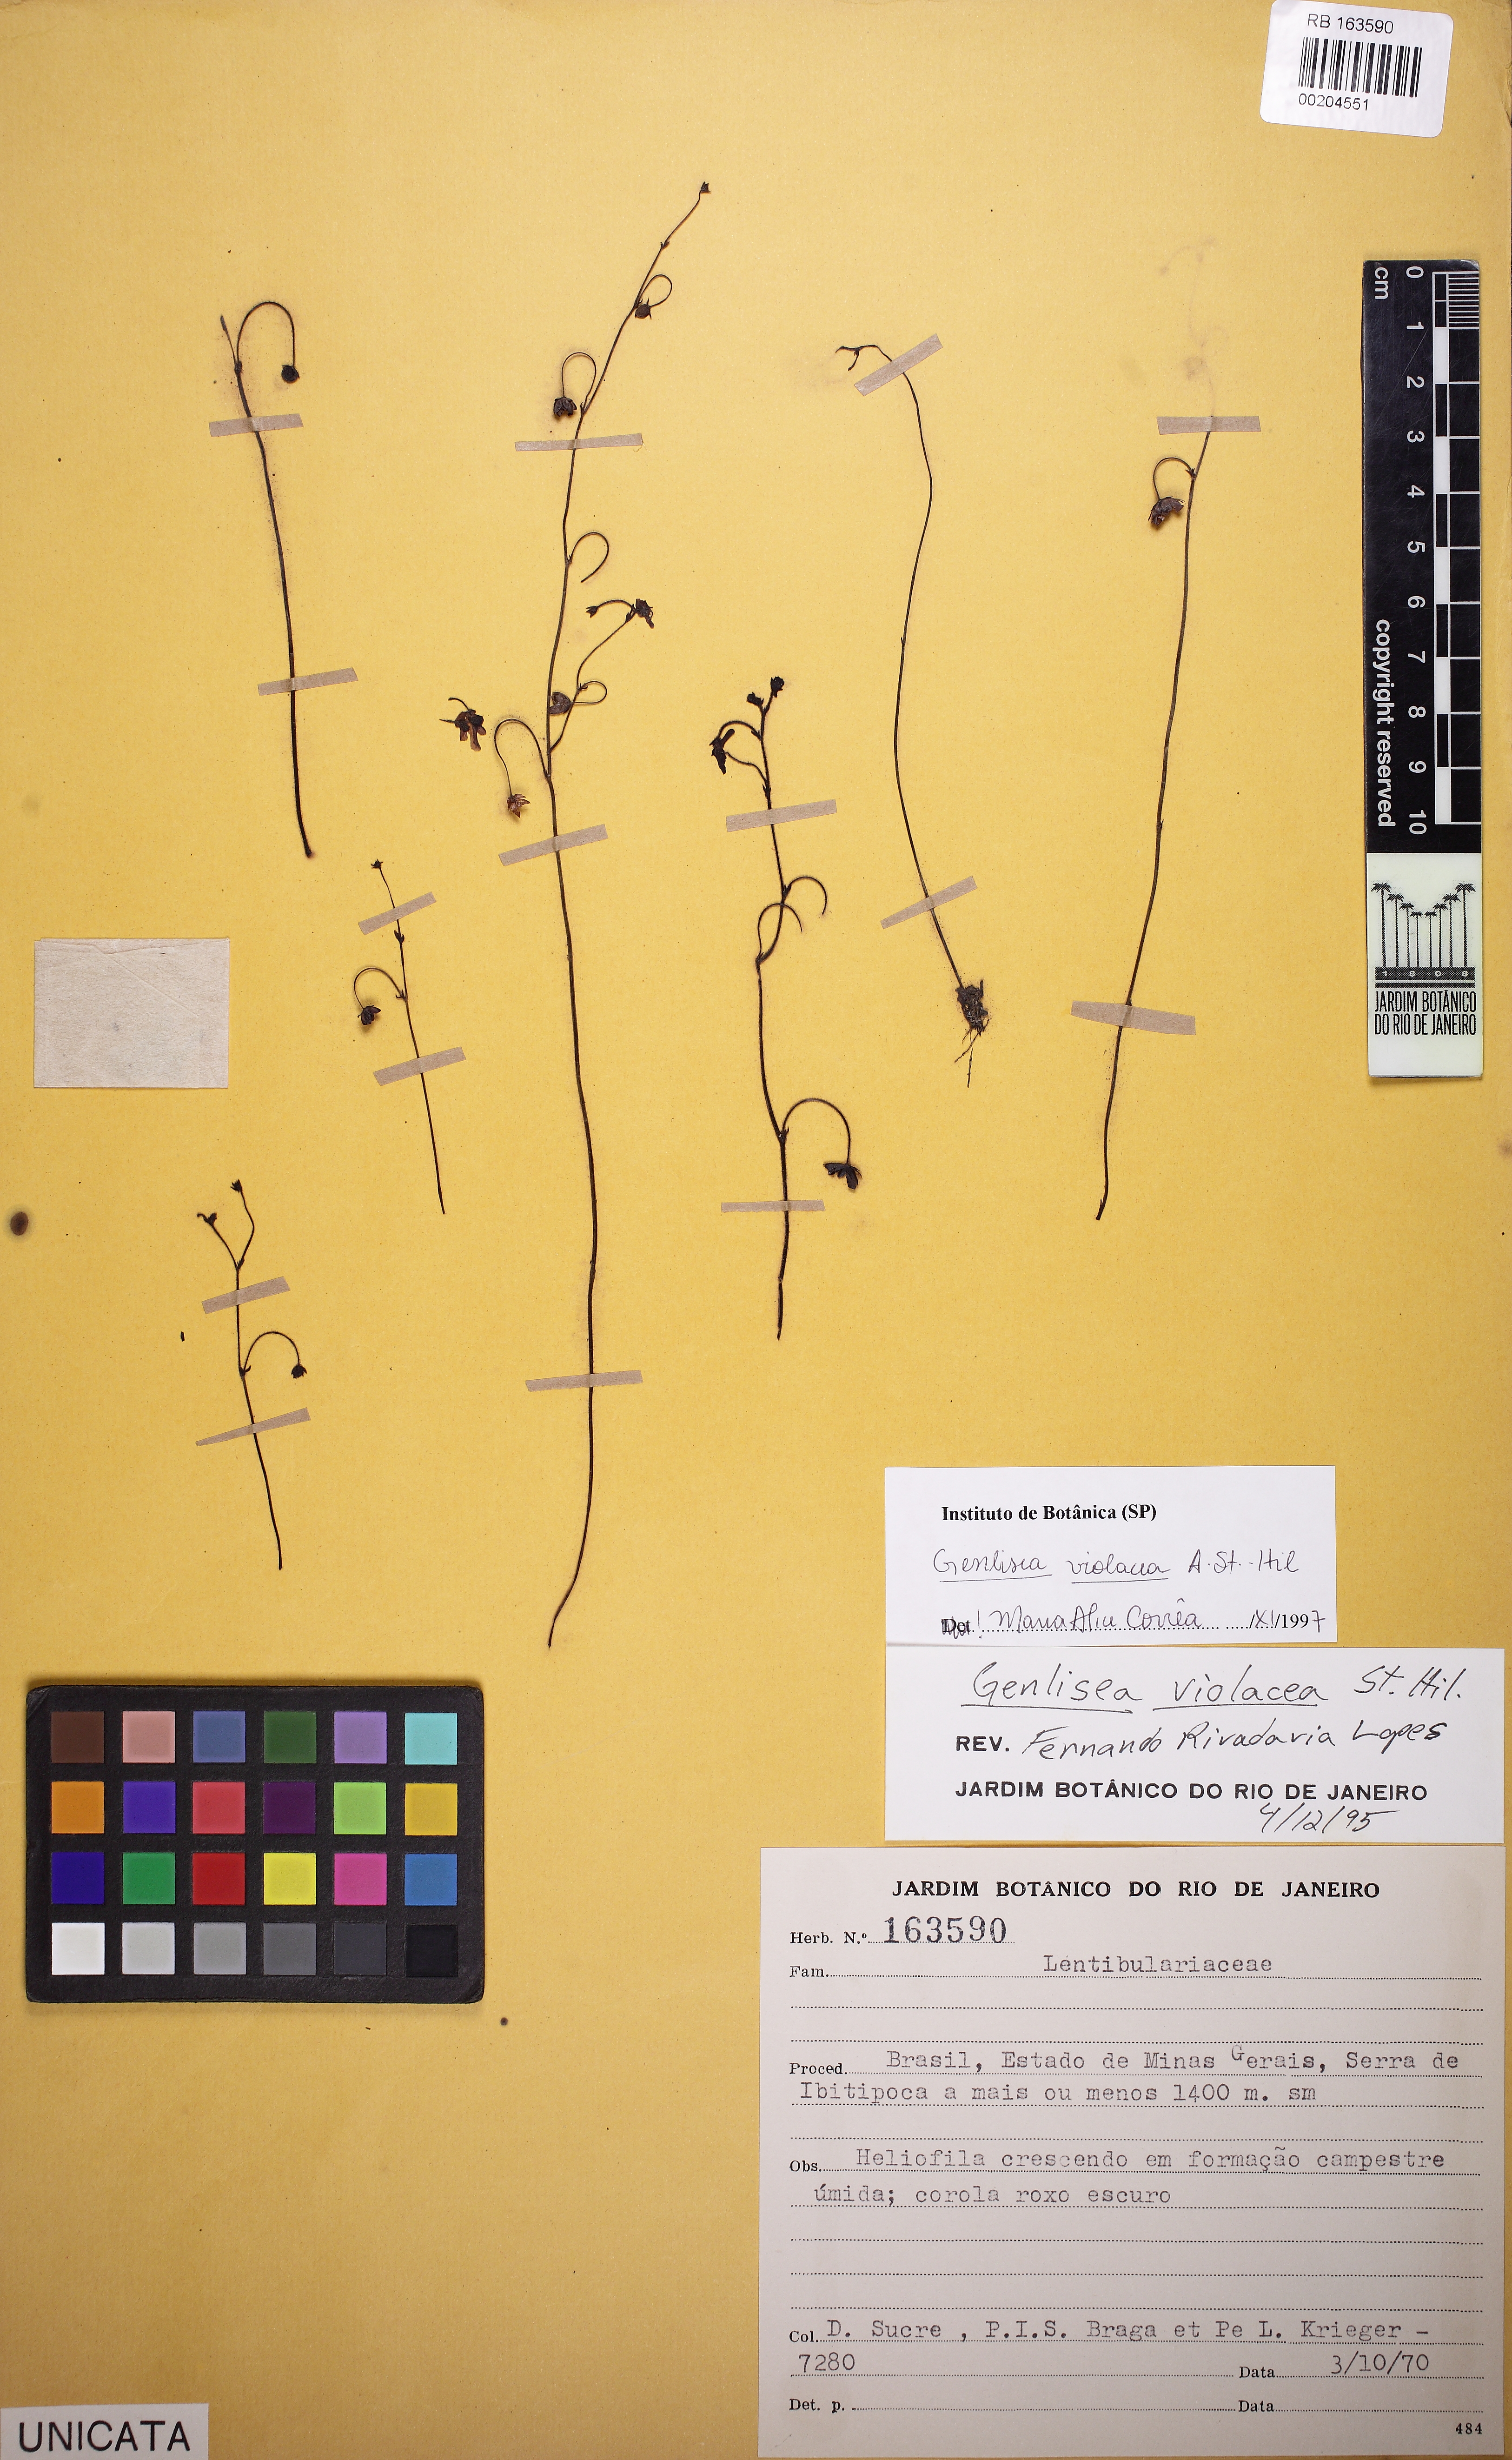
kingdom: Plantae
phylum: Tracheophyta
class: Magnoliopsida
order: Lamiales
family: Lentibulariaceae
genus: Genlisea
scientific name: Genlisea violacea
